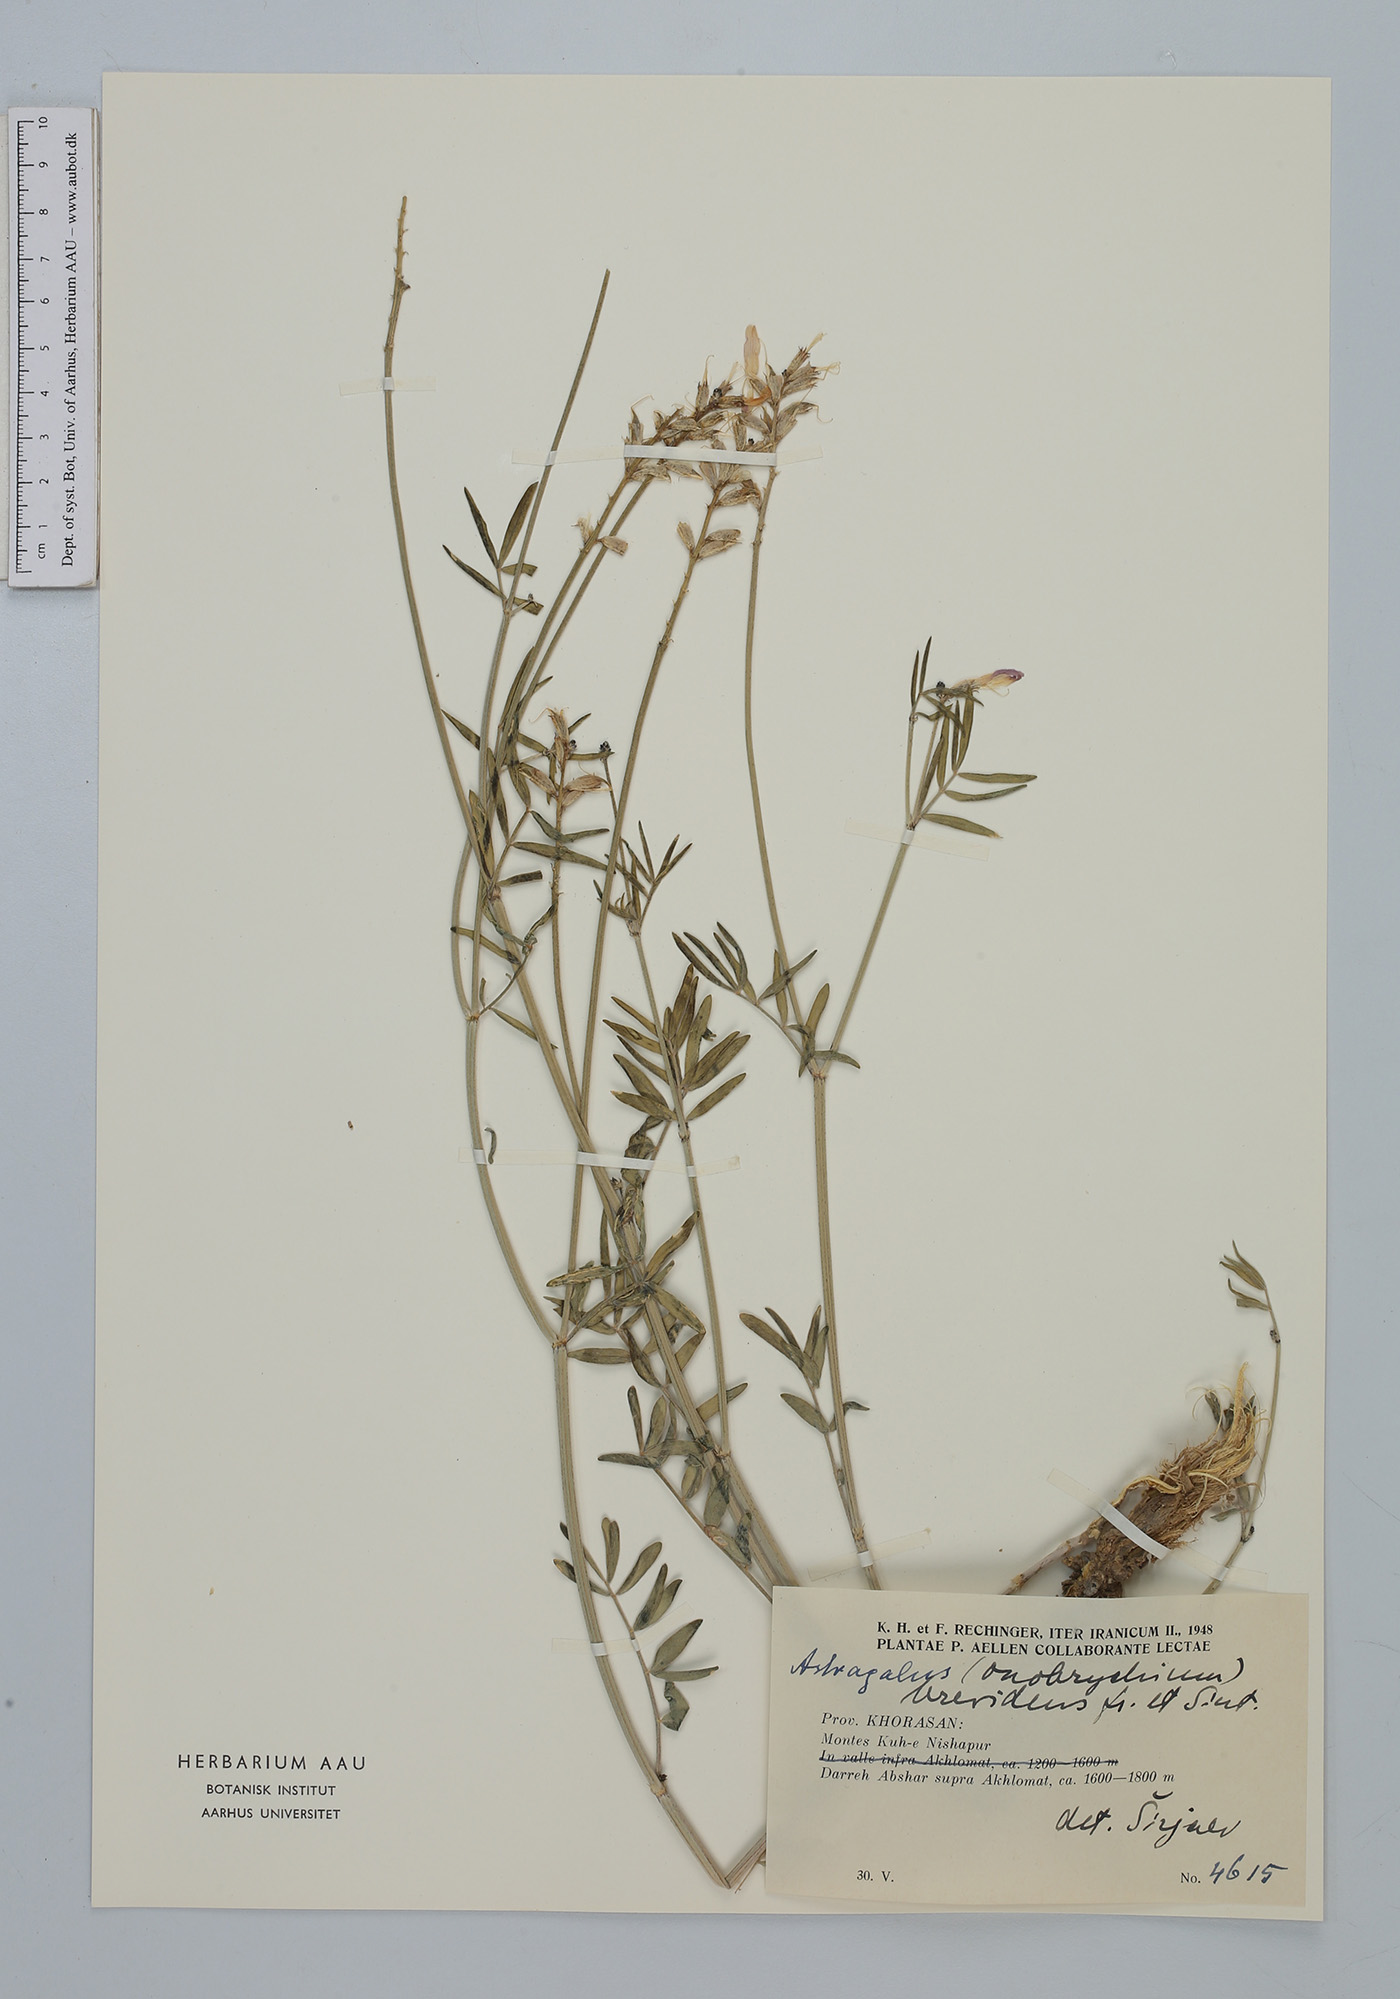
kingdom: Plantae
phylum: Tracheophyta
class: Magnoliopsida
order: Fabales
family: Fabaceae
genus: Astragalus
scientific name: Astragalus brevidens
